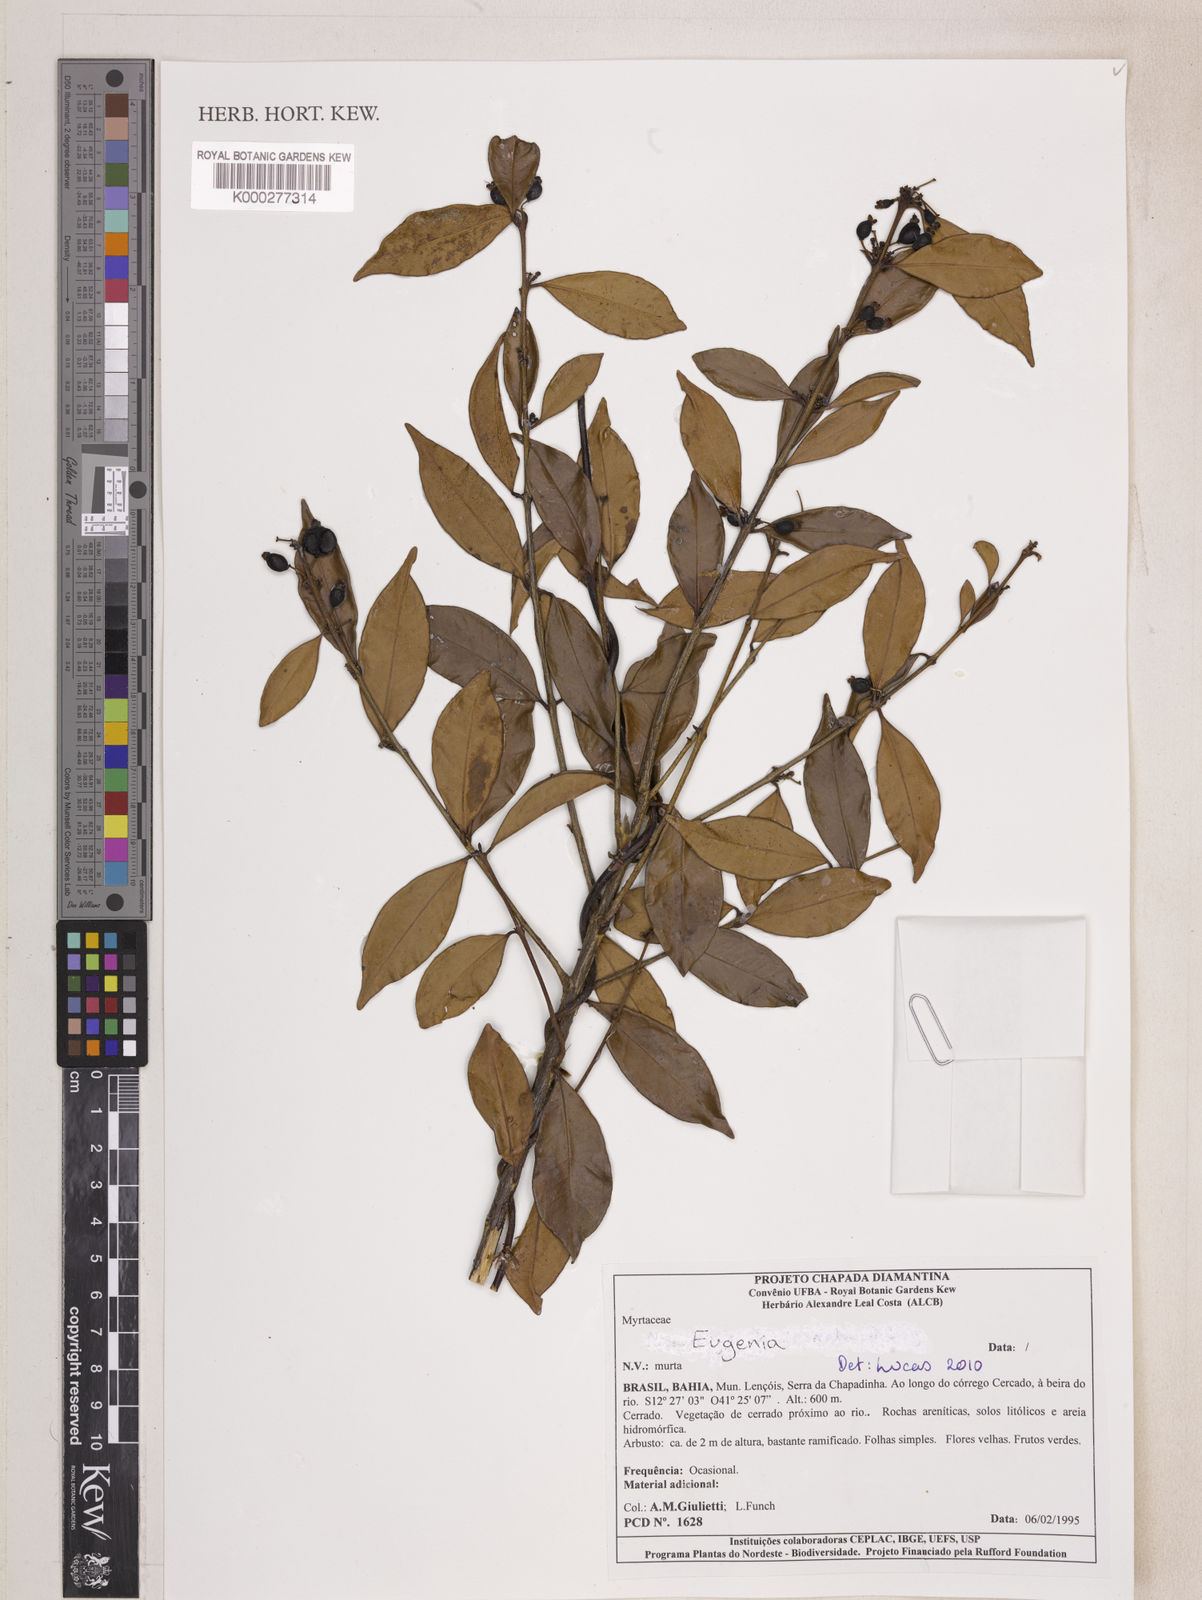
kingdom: Plantae
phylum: Tracheophyta
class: Magnoliopsida
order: Myrtales
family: Myrtaceae
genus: Eugenia
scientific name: Eugenia
